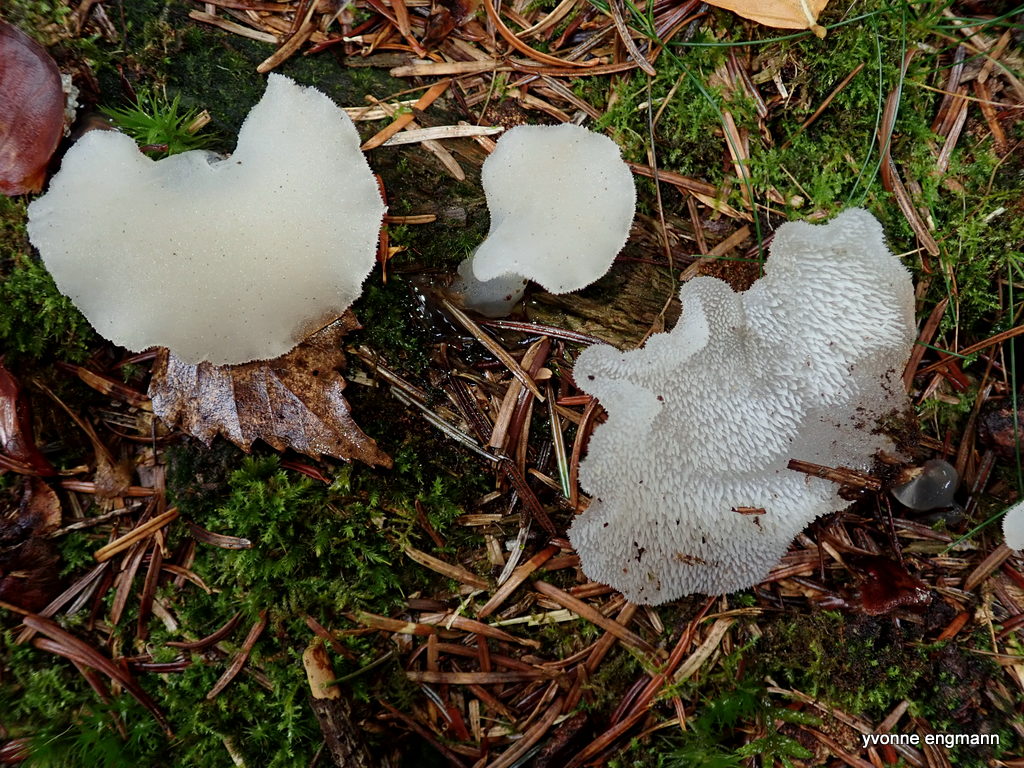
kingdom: Fungi
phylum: Basidiomycota
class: Agaricomycetes
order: Auriculariales
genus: Pseudohydnum
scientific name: Pseudohydnum gelatinosum
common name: bævretand
